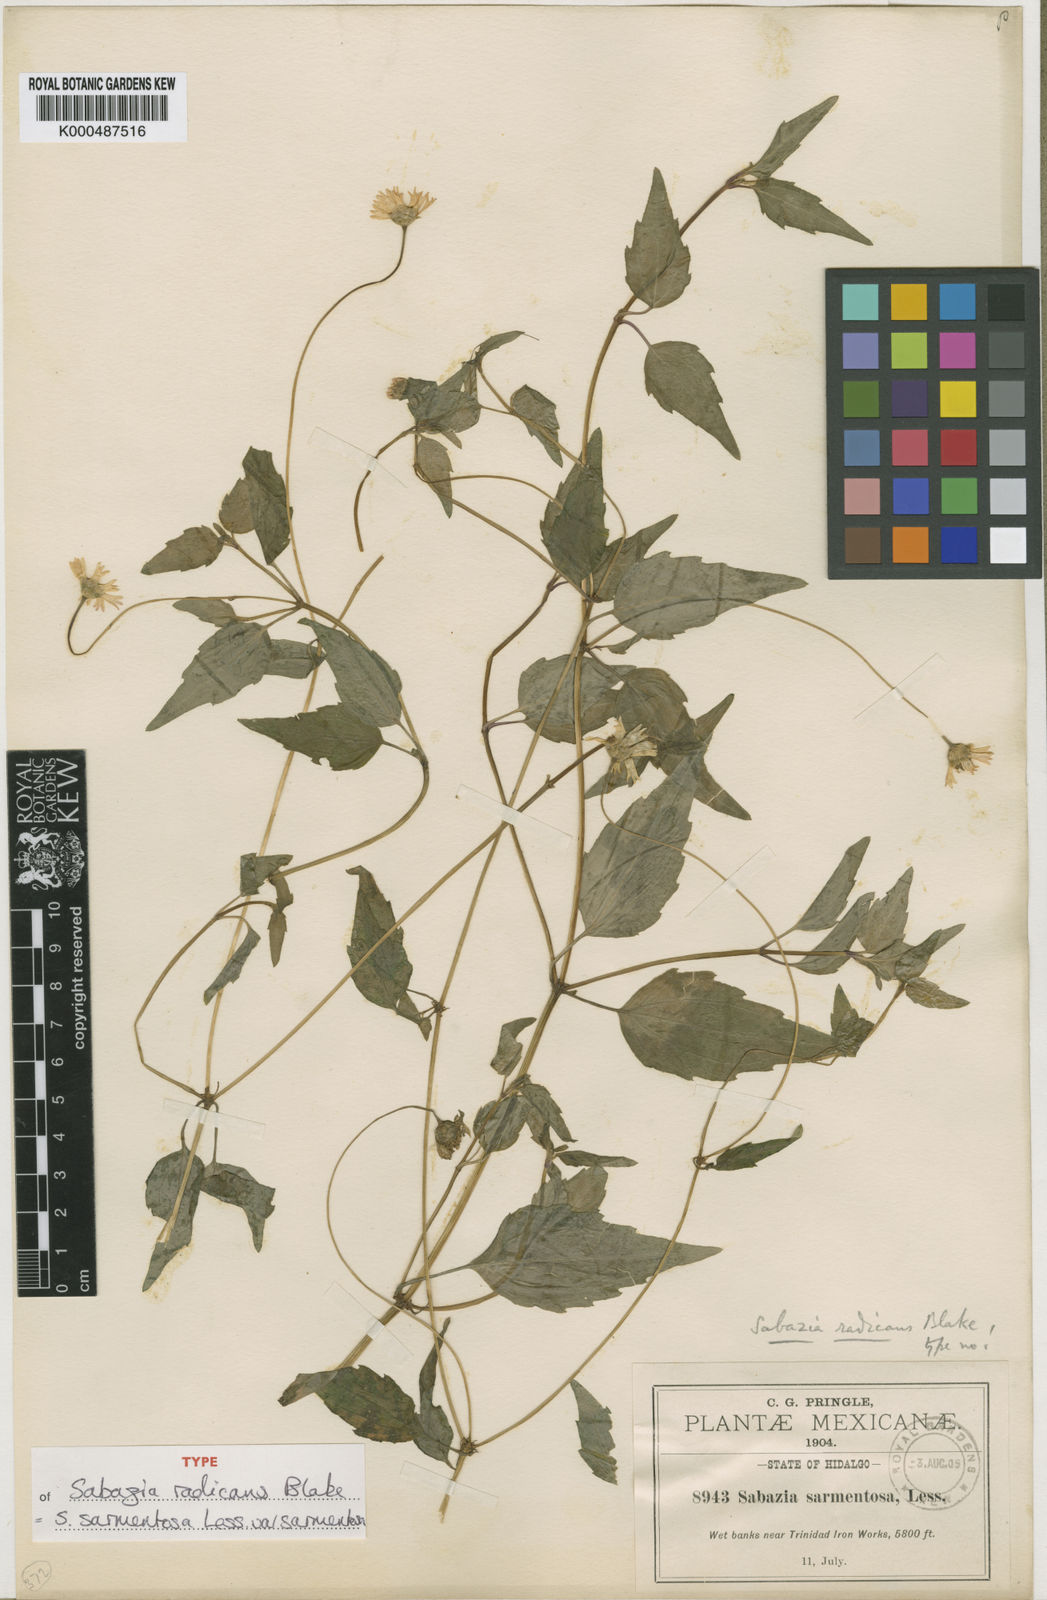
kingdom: Plantae
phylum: Tracheophyta
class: Magnoliopsida
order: Asterales
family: Asteraceae
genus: Sabazia
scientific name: Sabazia sarmentosa
